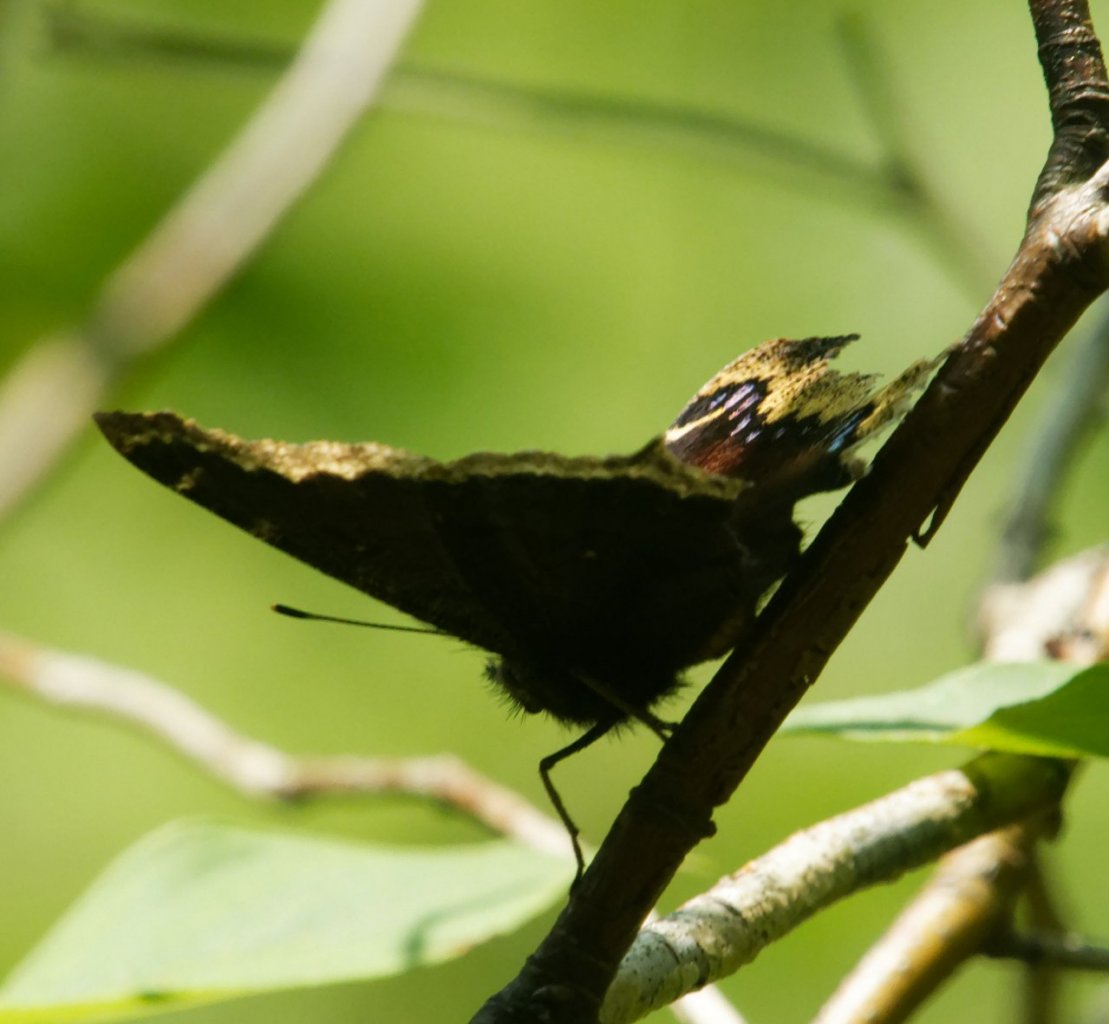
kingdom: Animalia
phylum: Arthropoda
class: Insecta
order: Lepidoptera
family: Nymphalidae
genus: Nymphalis
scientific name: Nymphalis antiopa
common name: Mourning Cloak
